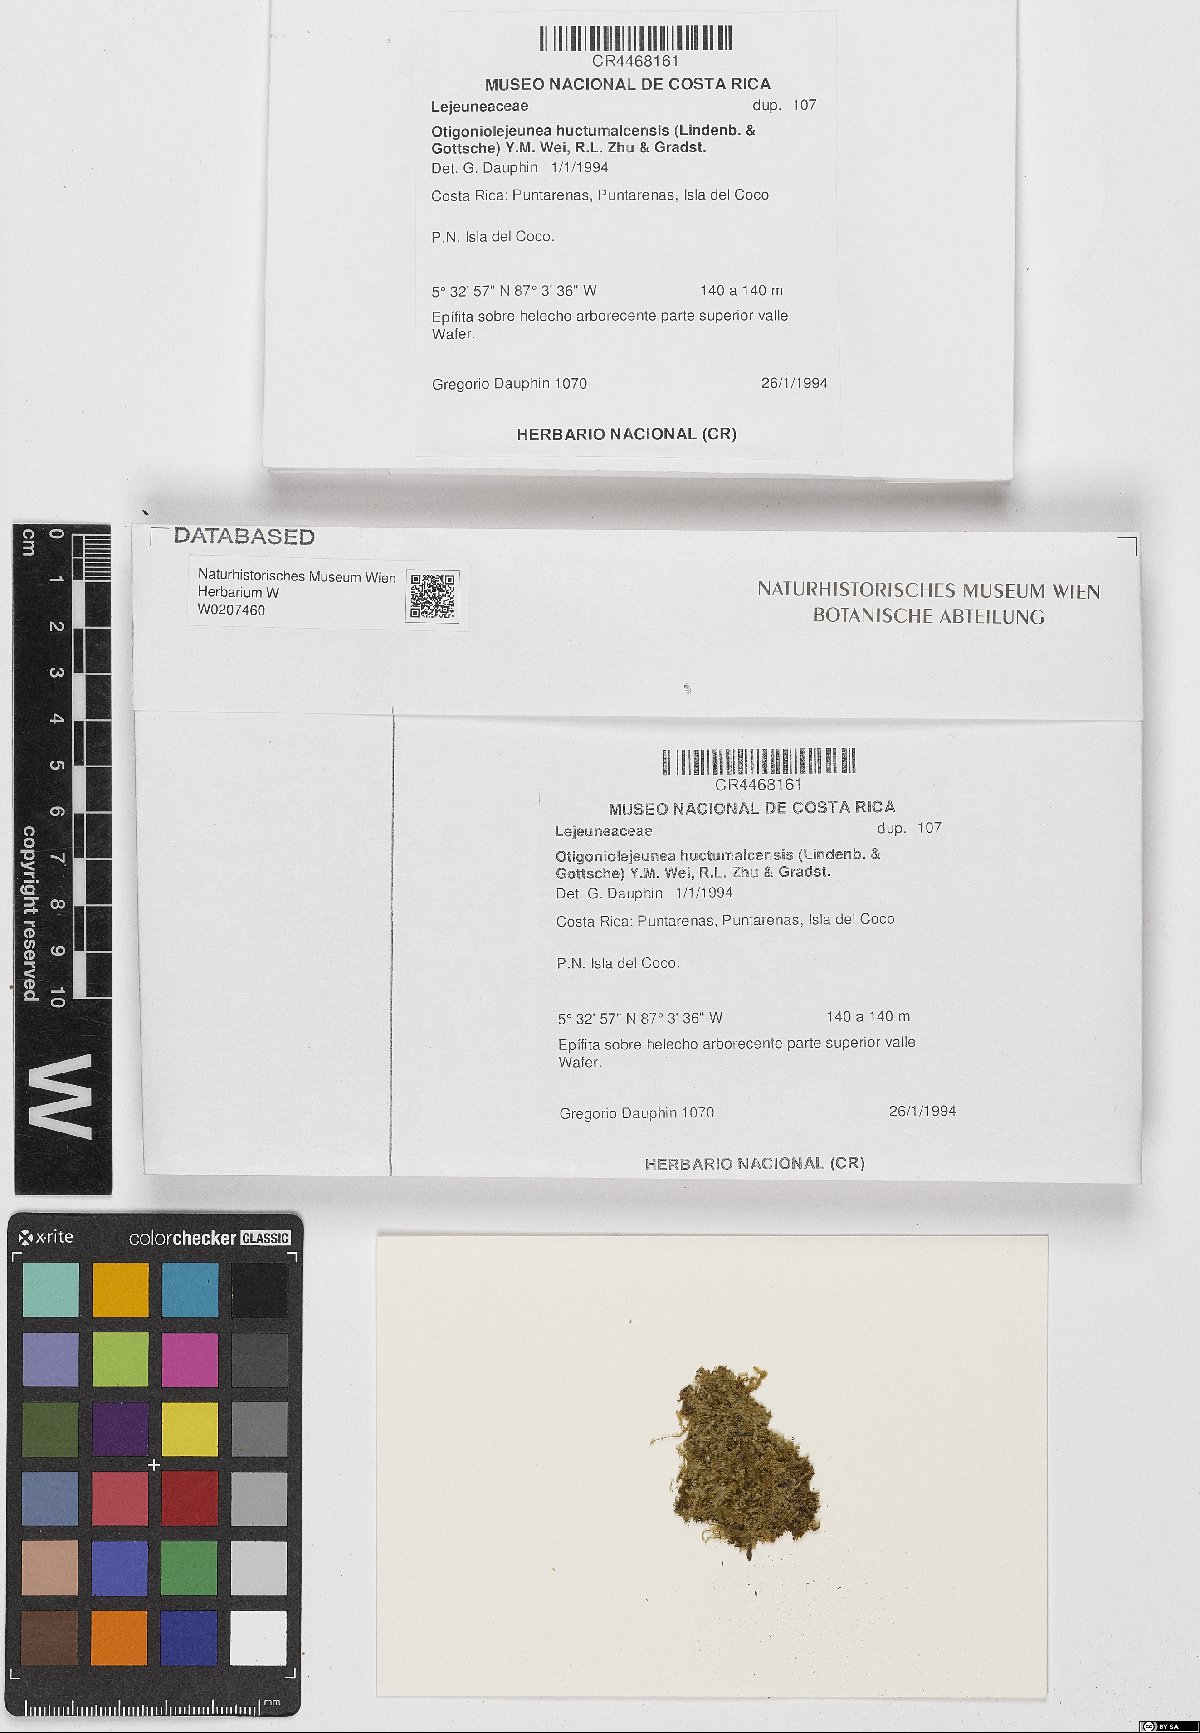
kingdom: Plantae
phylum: Marchantiophyta
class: Jungermanniopsida
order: Porellales
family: Lejeuneaceae
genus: Otigoniolejeunea
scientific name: Otigoniolejeunea huctumalcensis
